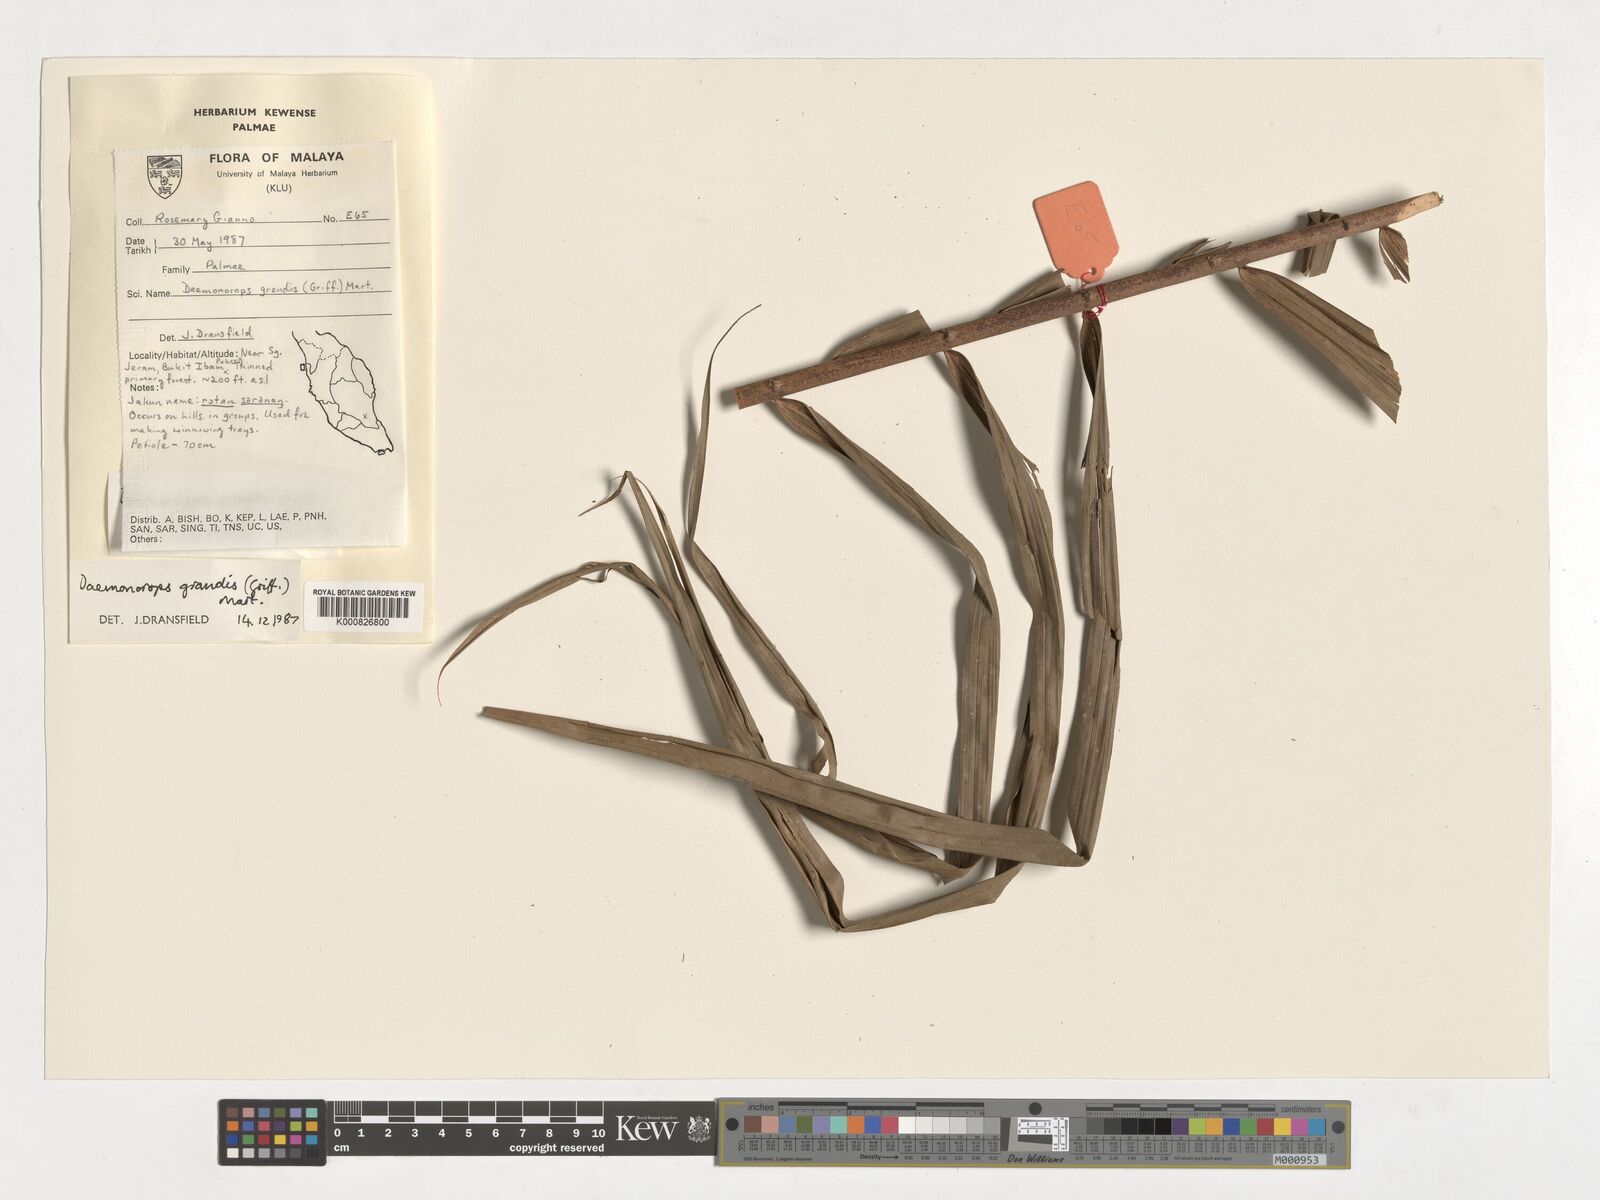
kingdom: Plantae
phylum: Tracheophyta
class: Liliopsida
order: Arecales
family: Arecaceae
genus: Calamus
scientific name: Calamus melanochaetes
